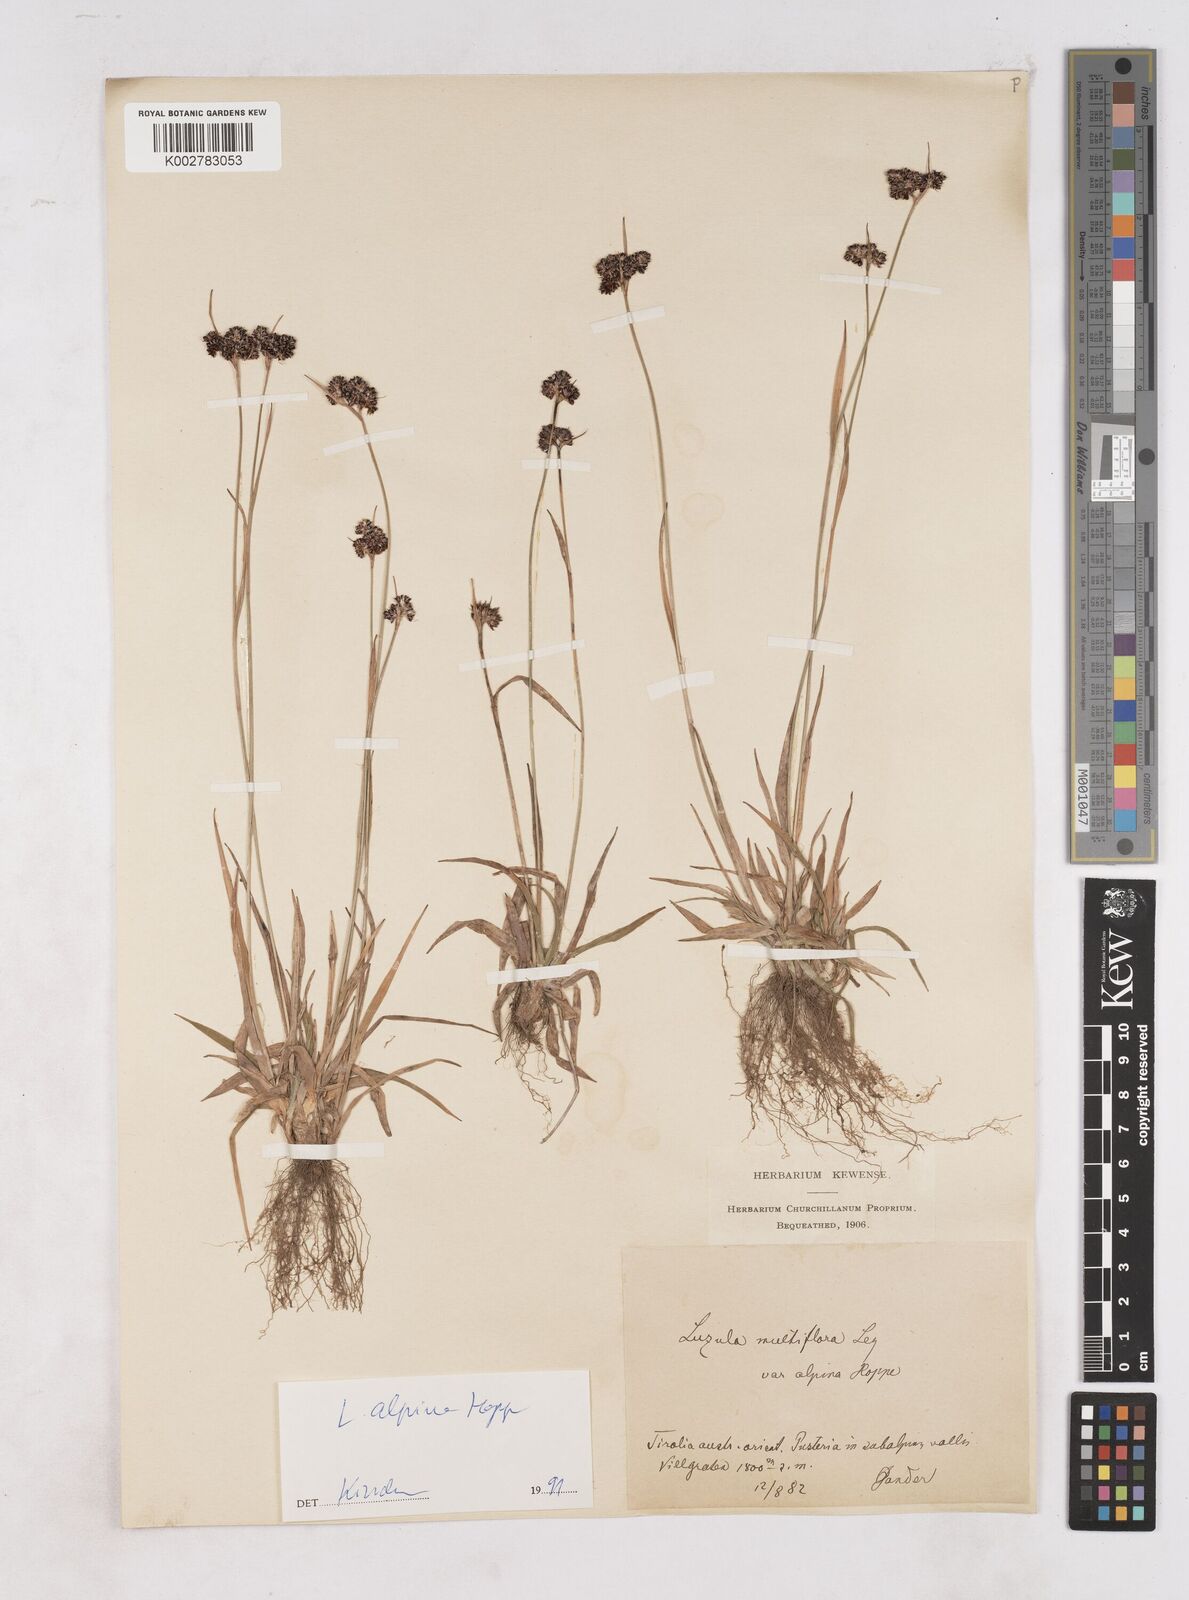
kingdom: Plantae
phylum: Tracheophyta
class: Liliopsida
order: Poales
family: Juncaceae
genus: Luzula
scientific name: Luzula campestris
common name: Field wood-rush
